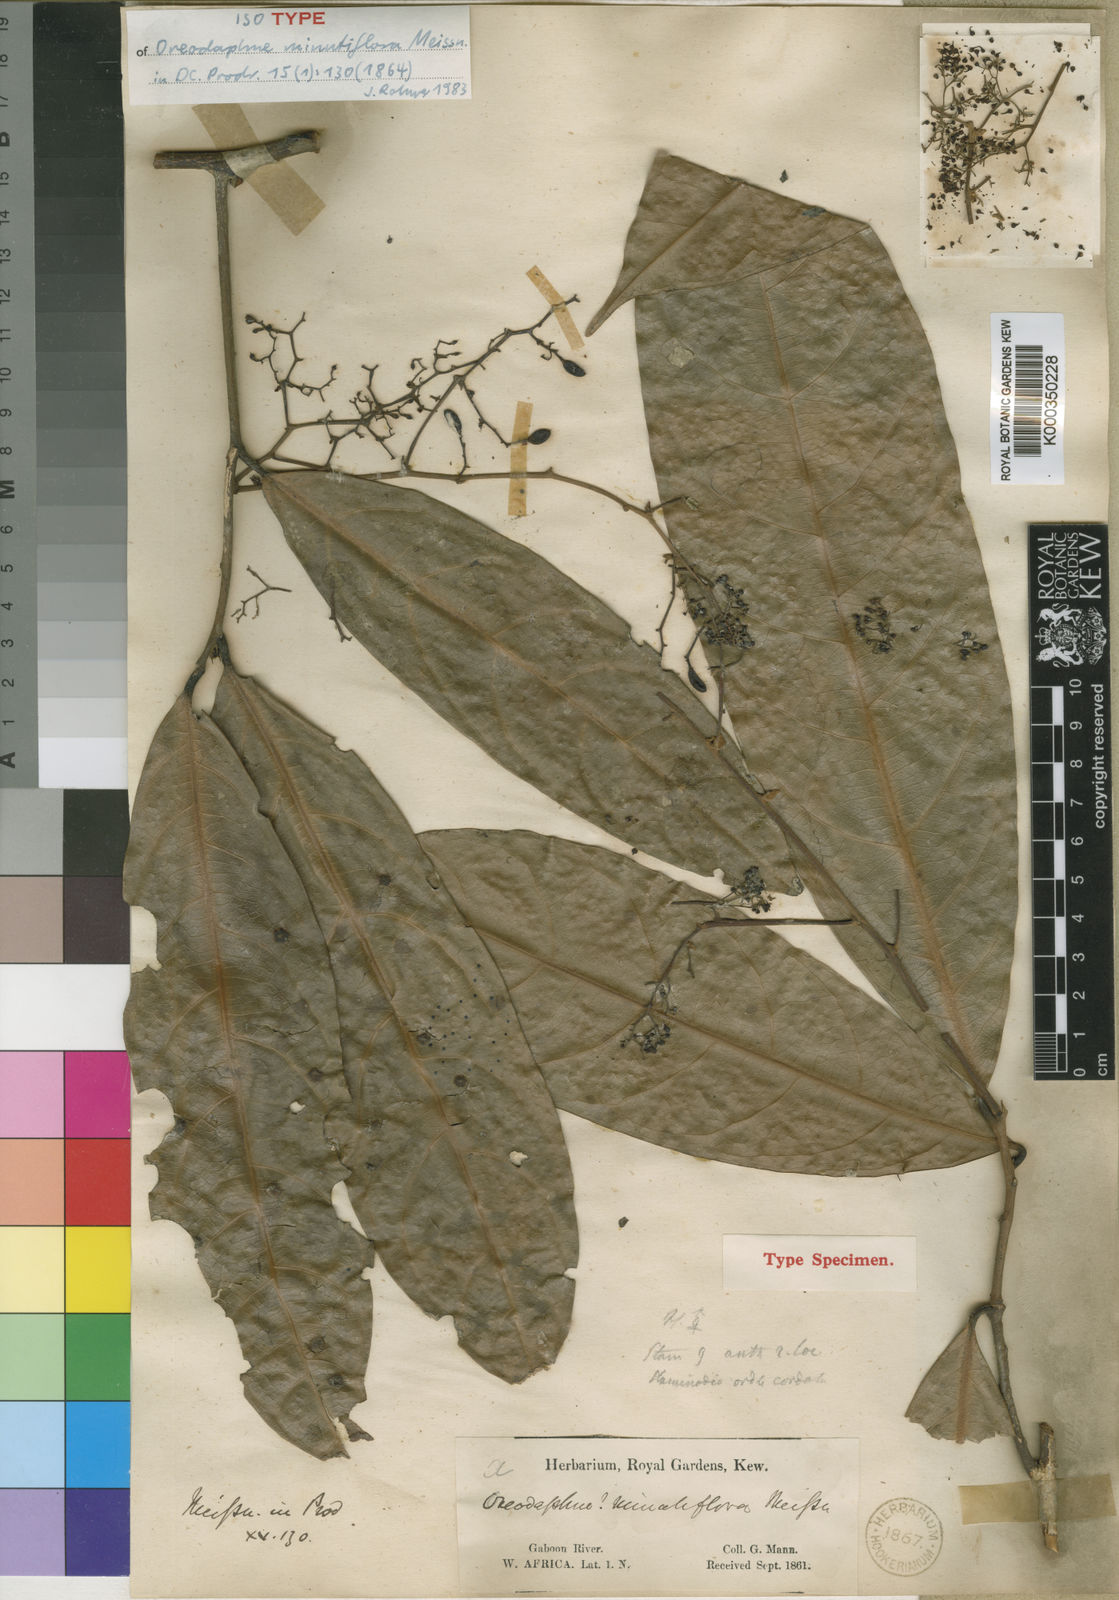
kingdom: Plantae
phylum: Tracheophyta
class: Magnoliopsida
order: Laurales
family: Lauraceae
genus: Beilschmiedia
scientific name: Beilschmiedia
